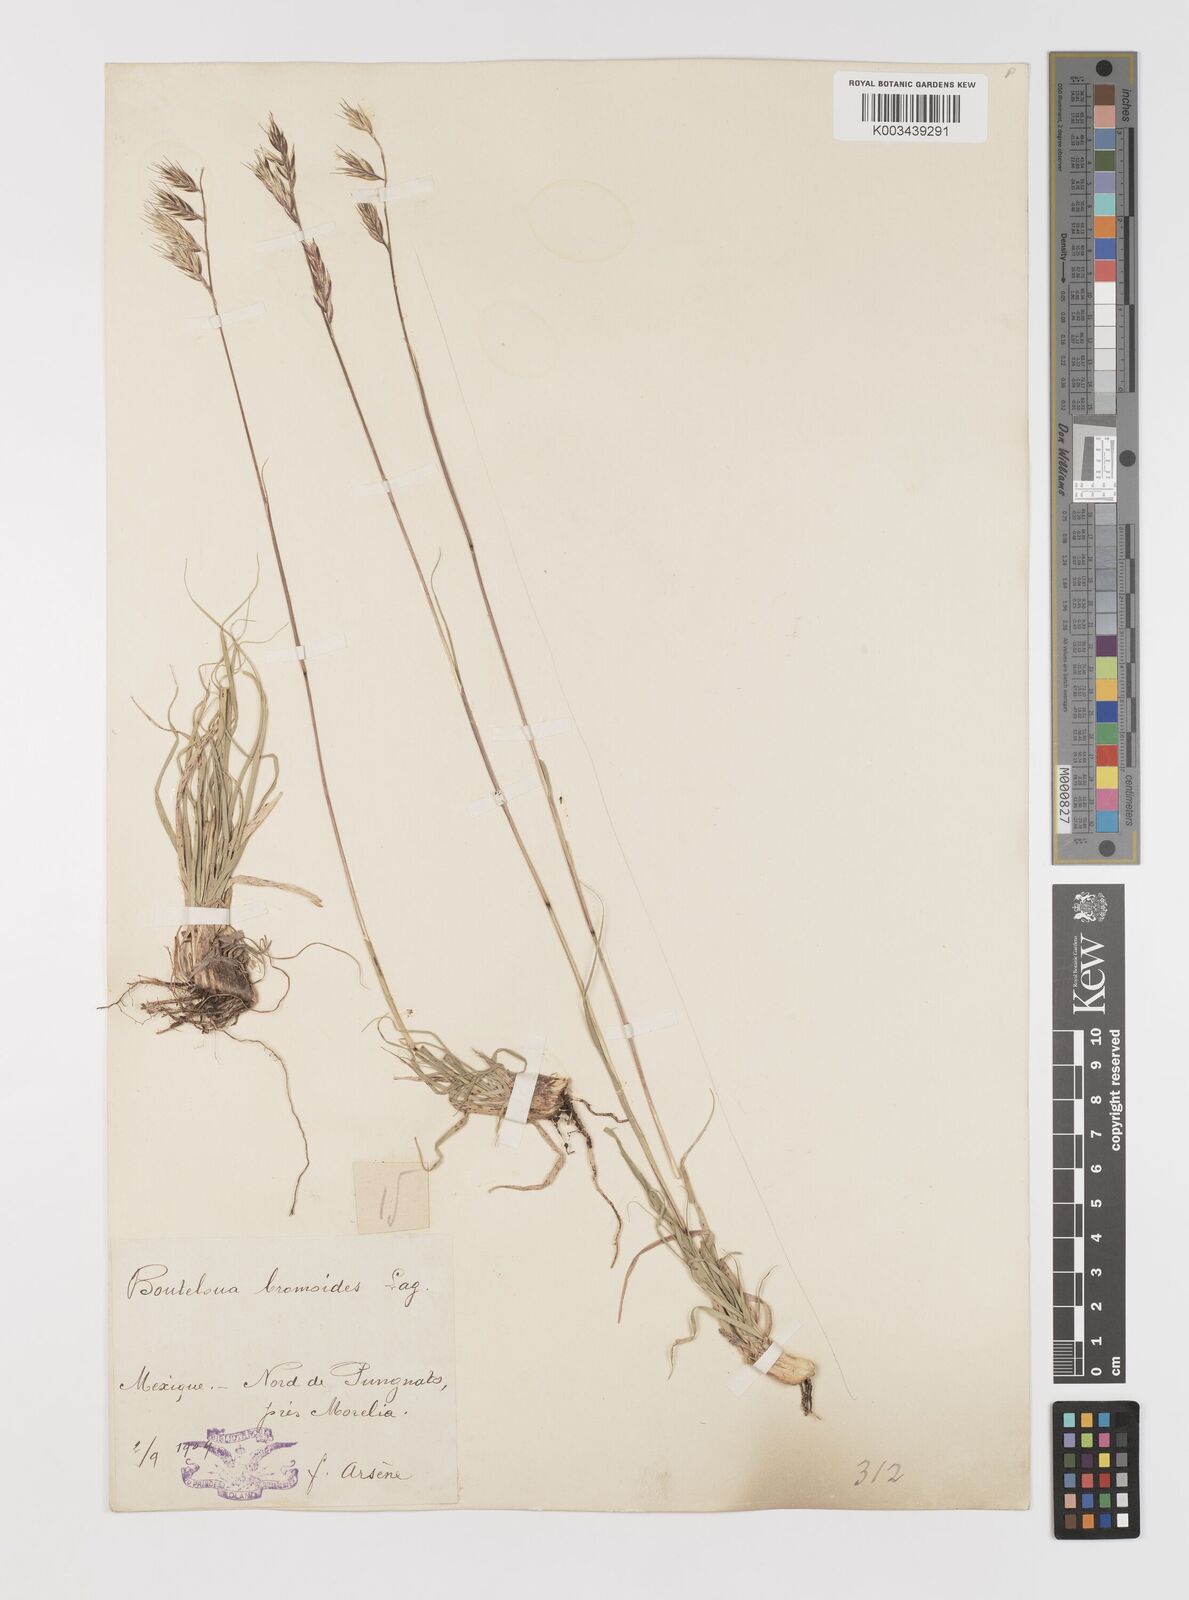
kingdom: Plantae
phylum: Tracheophyta
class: Liliopsida
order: Poales
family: Poaceae
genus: Bouteloua
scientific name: Bouteloua repens
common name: Slender grama
